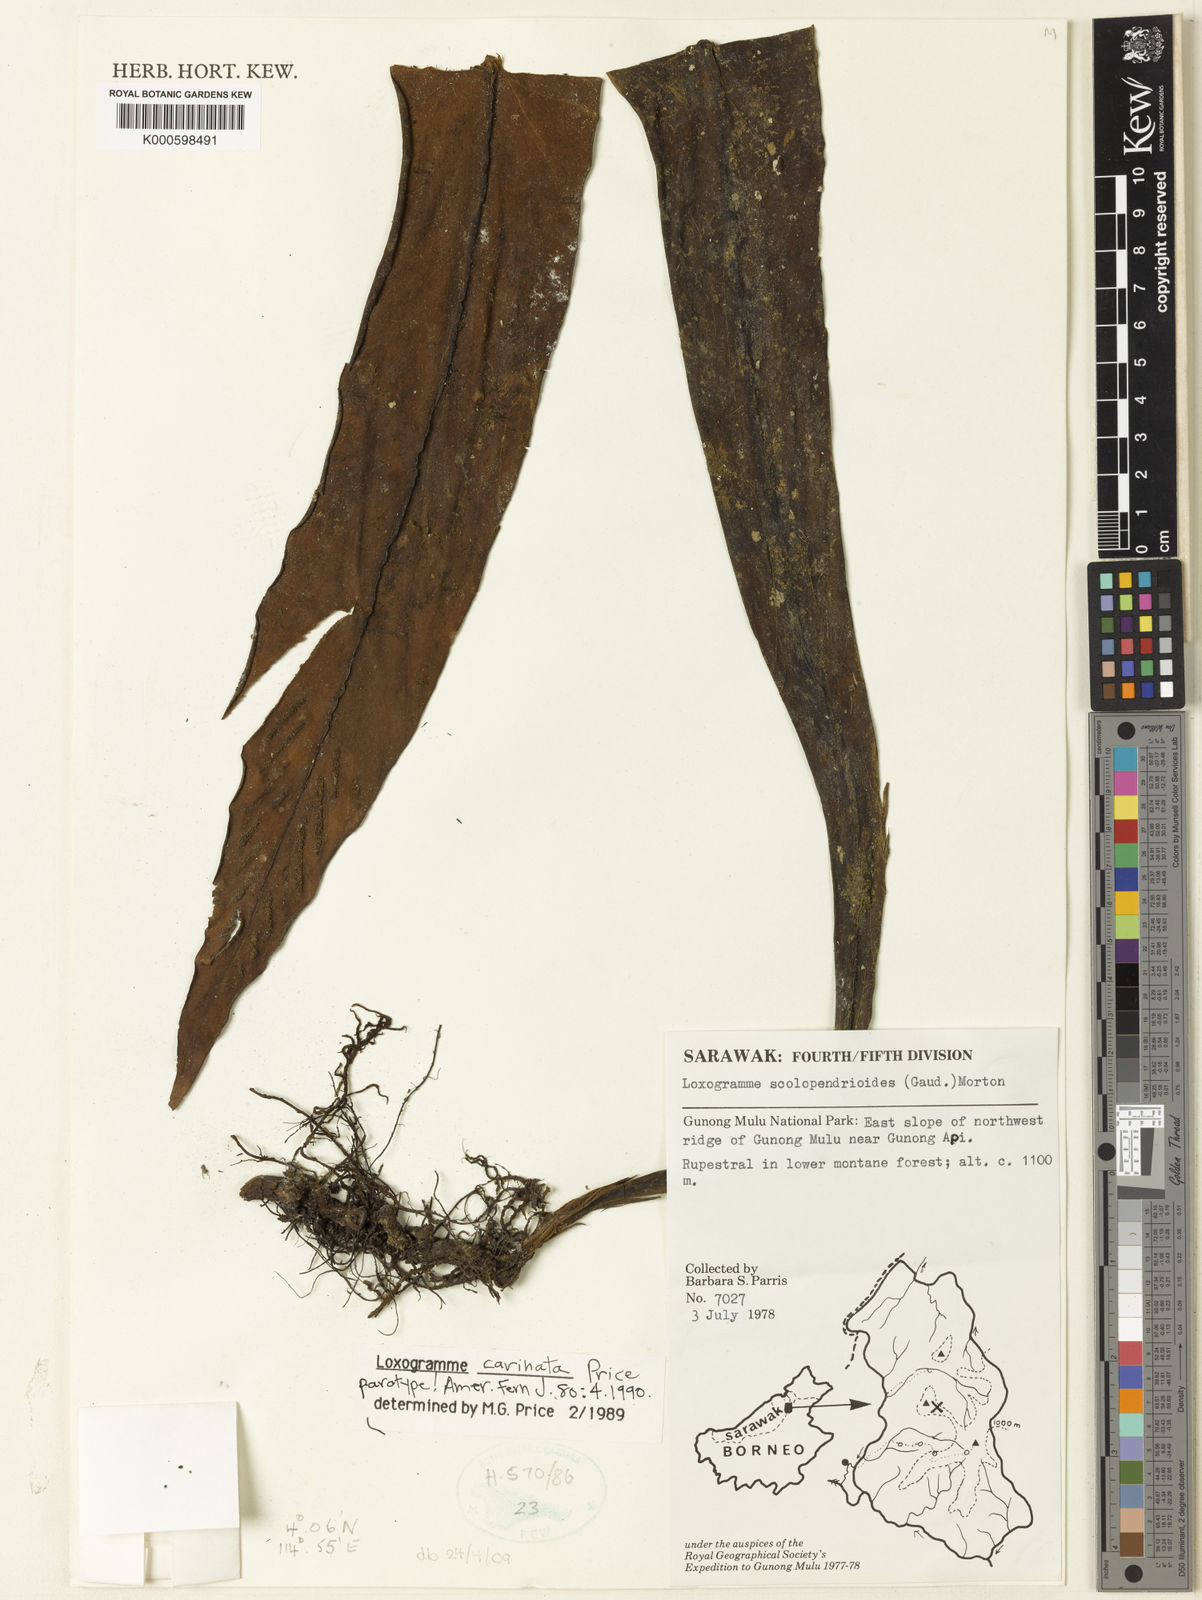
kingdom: Plantae
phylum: Tracheophyta
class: Polypodiopsida
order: Polypodiales
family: Polypodiaceae
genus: Loxogramme
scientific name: Loxogramme carinata
